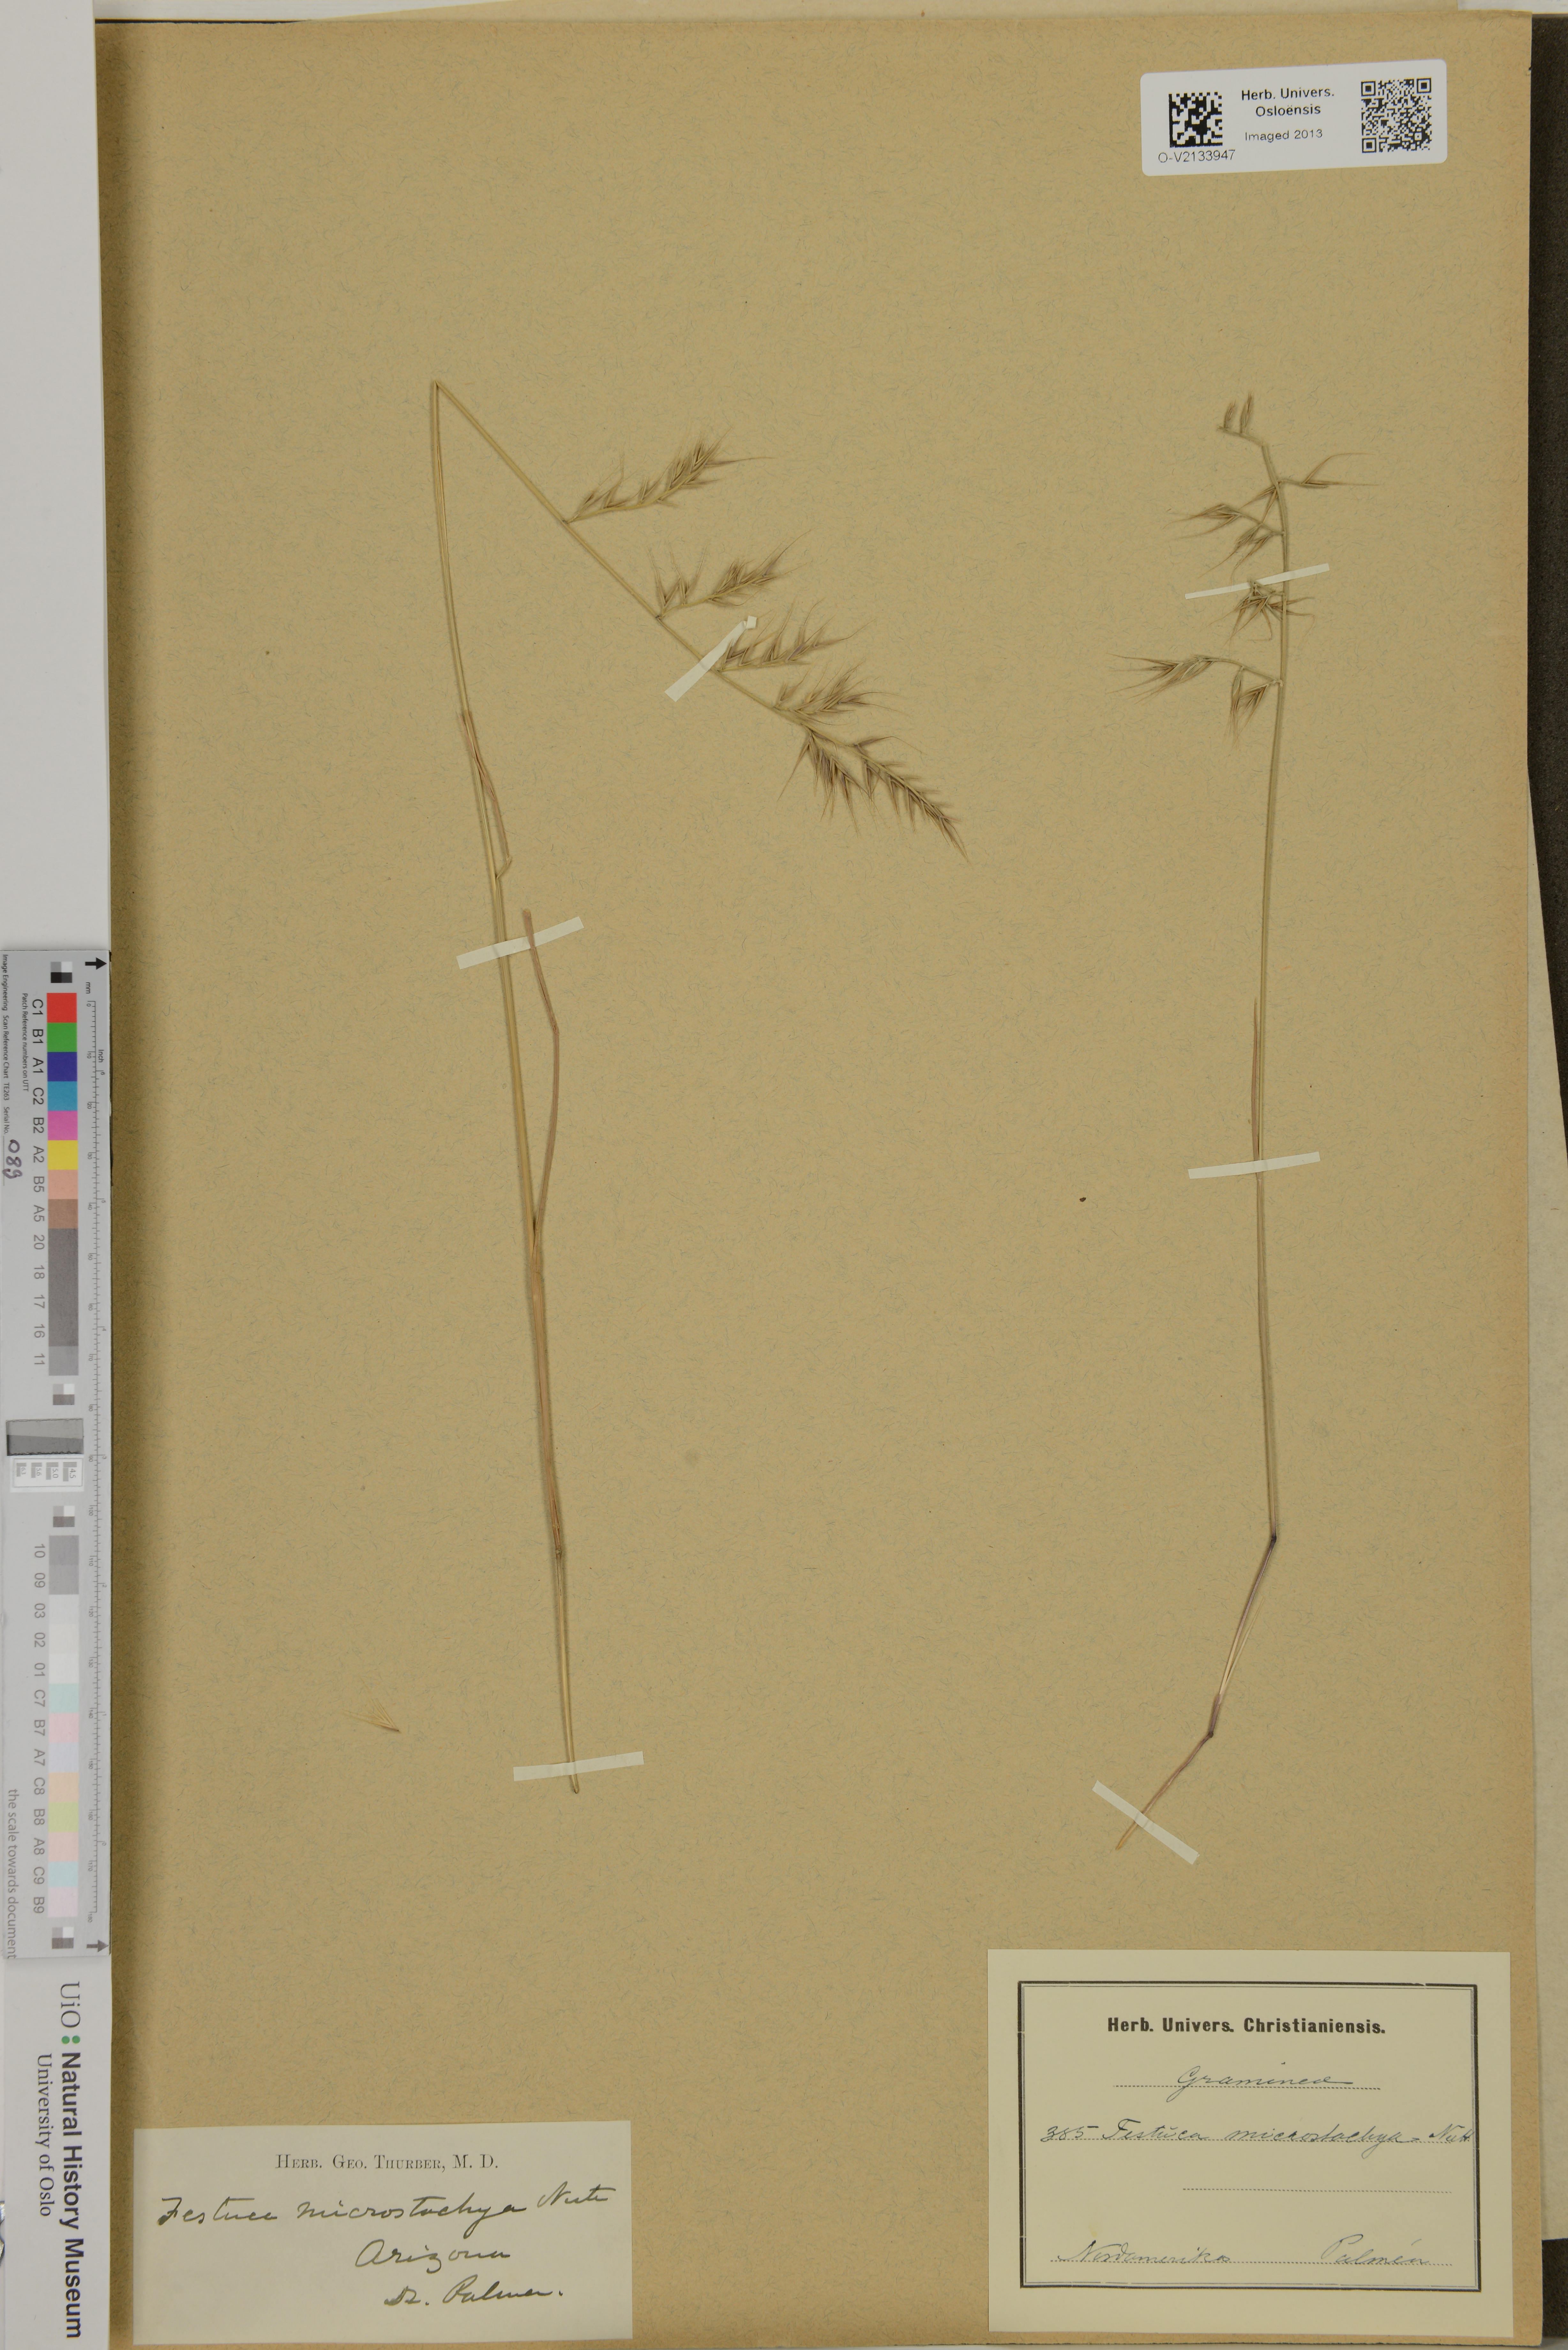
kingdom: Plantae
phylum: Tracheophyta
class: Liliopsida
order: Poales
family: Poaceae
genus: Triodia
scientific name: Triodia microstachya
